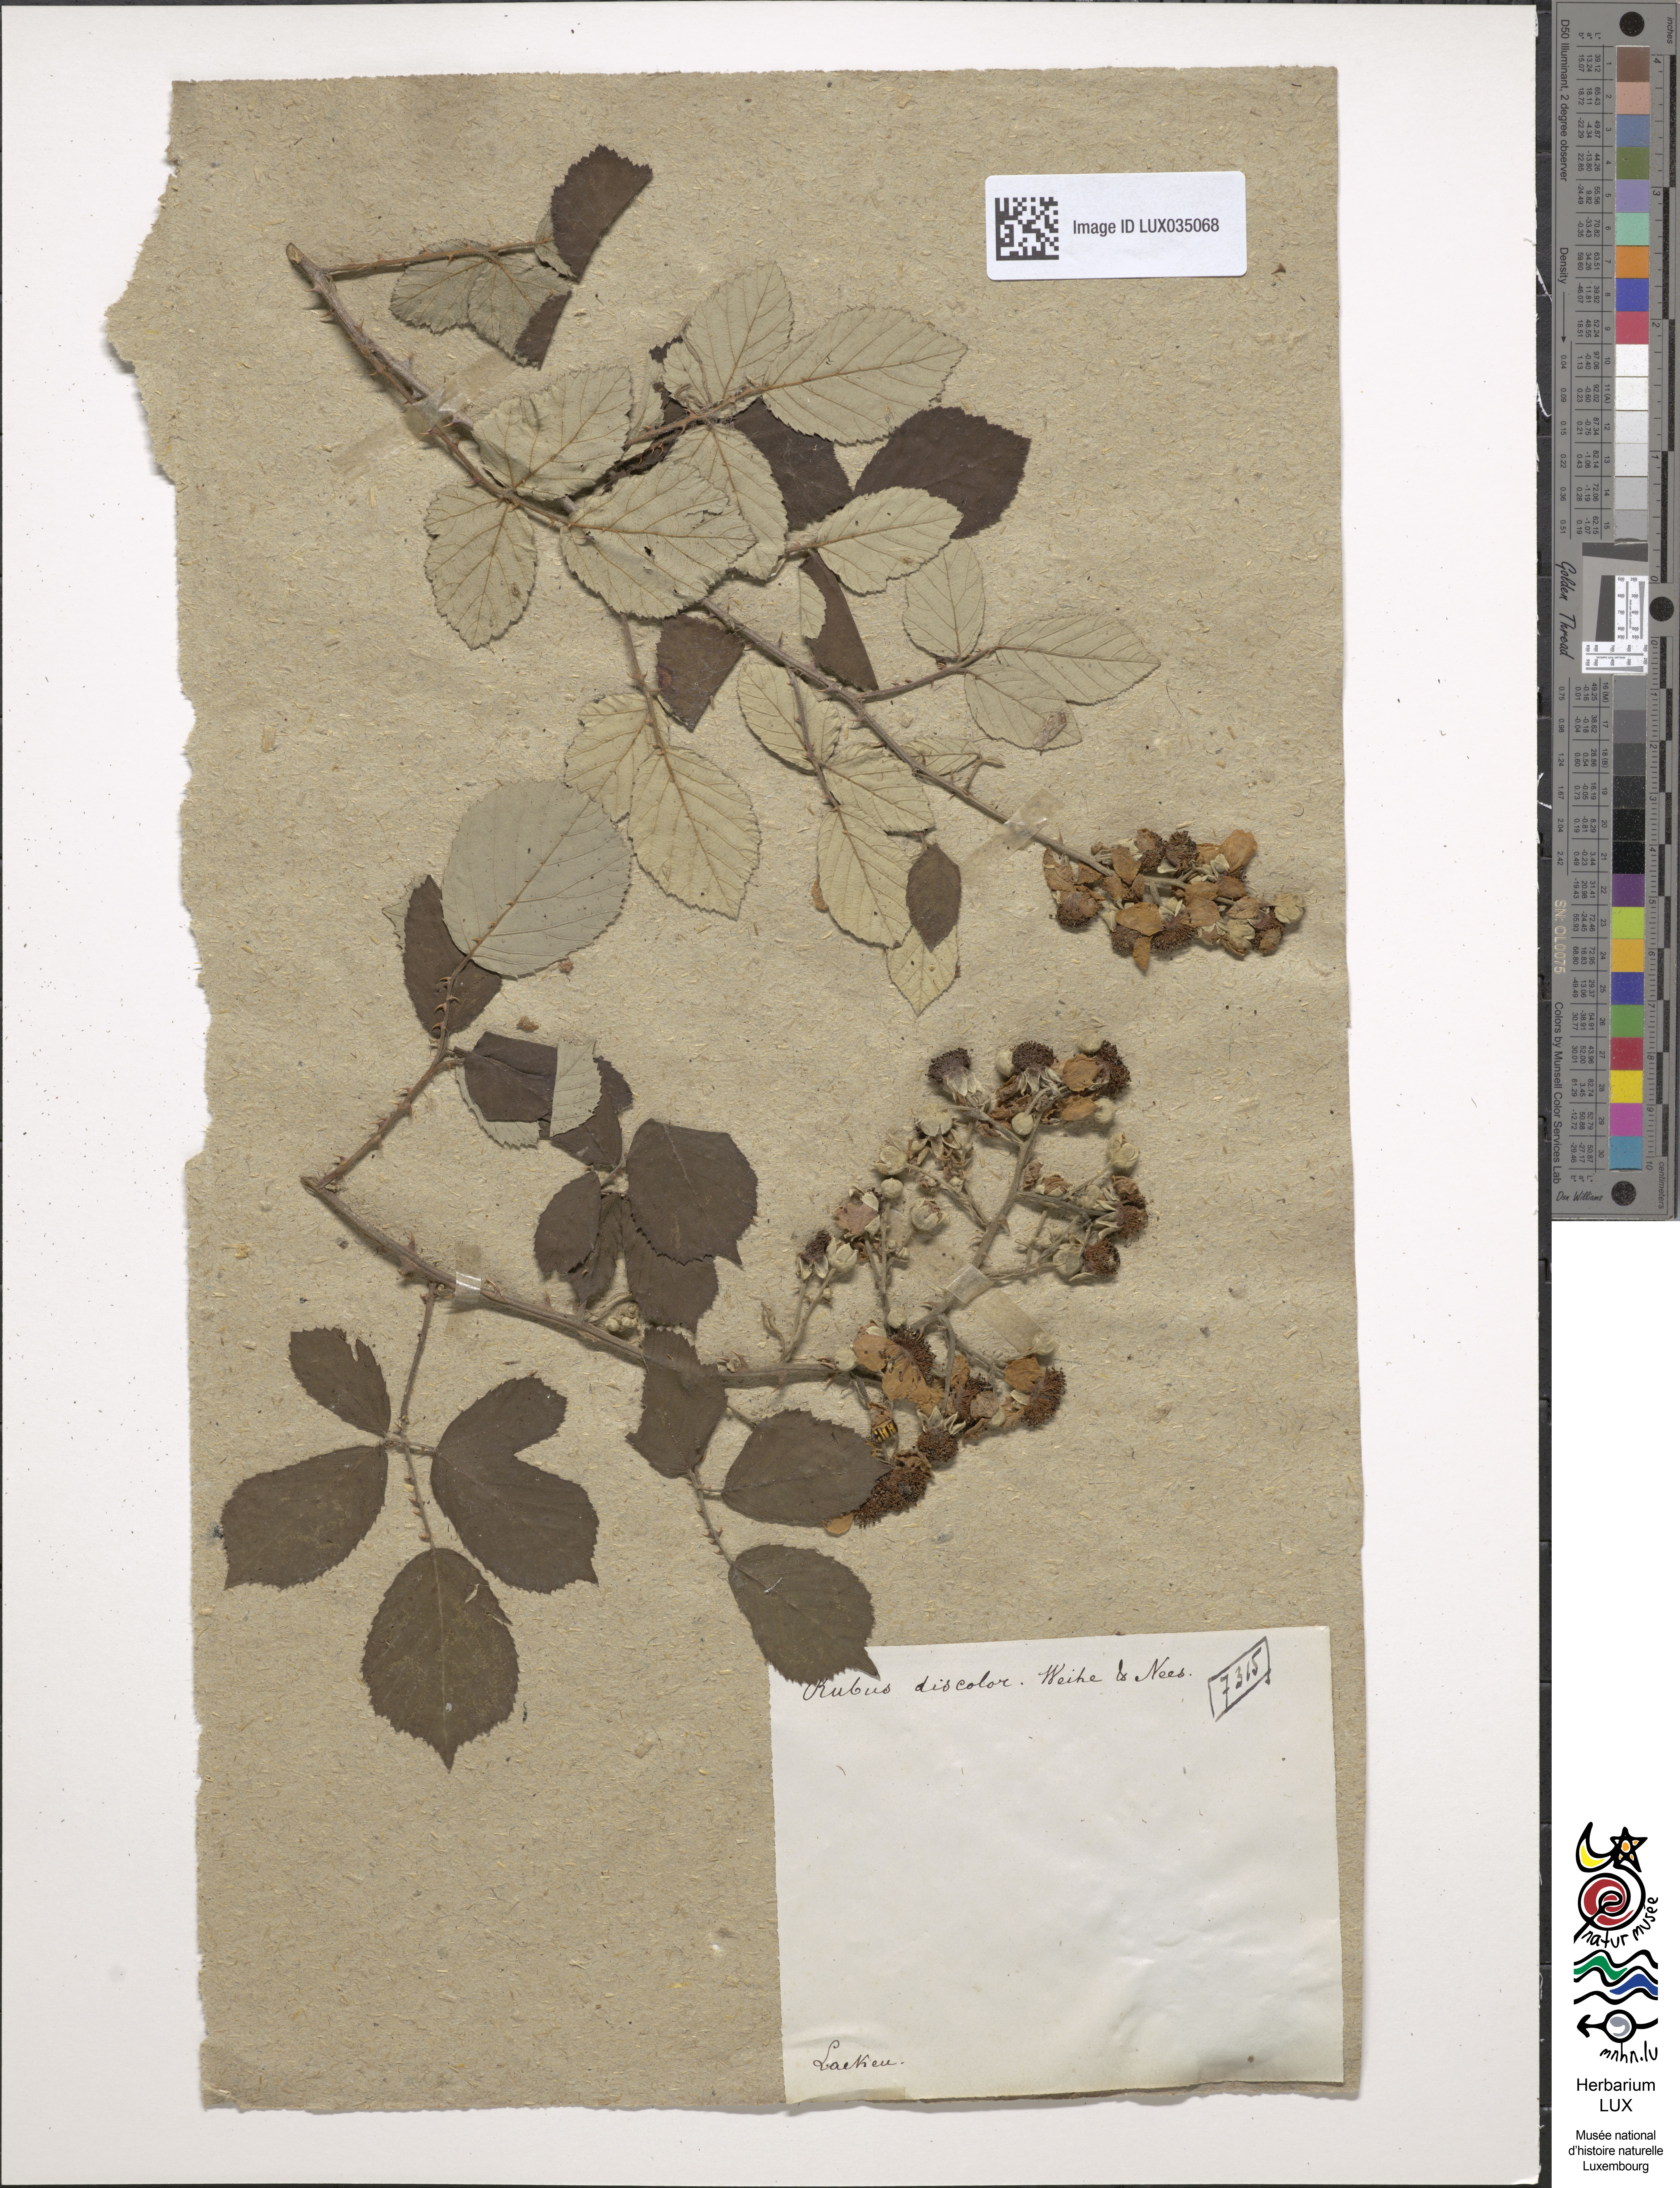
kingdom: Plantae
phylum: Tracheophyta
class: Magnoliopsida
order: Rosales
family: Rosaceae
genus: Rubus
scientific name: Rubus ulmifolius
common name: Elmleaf blackberry
